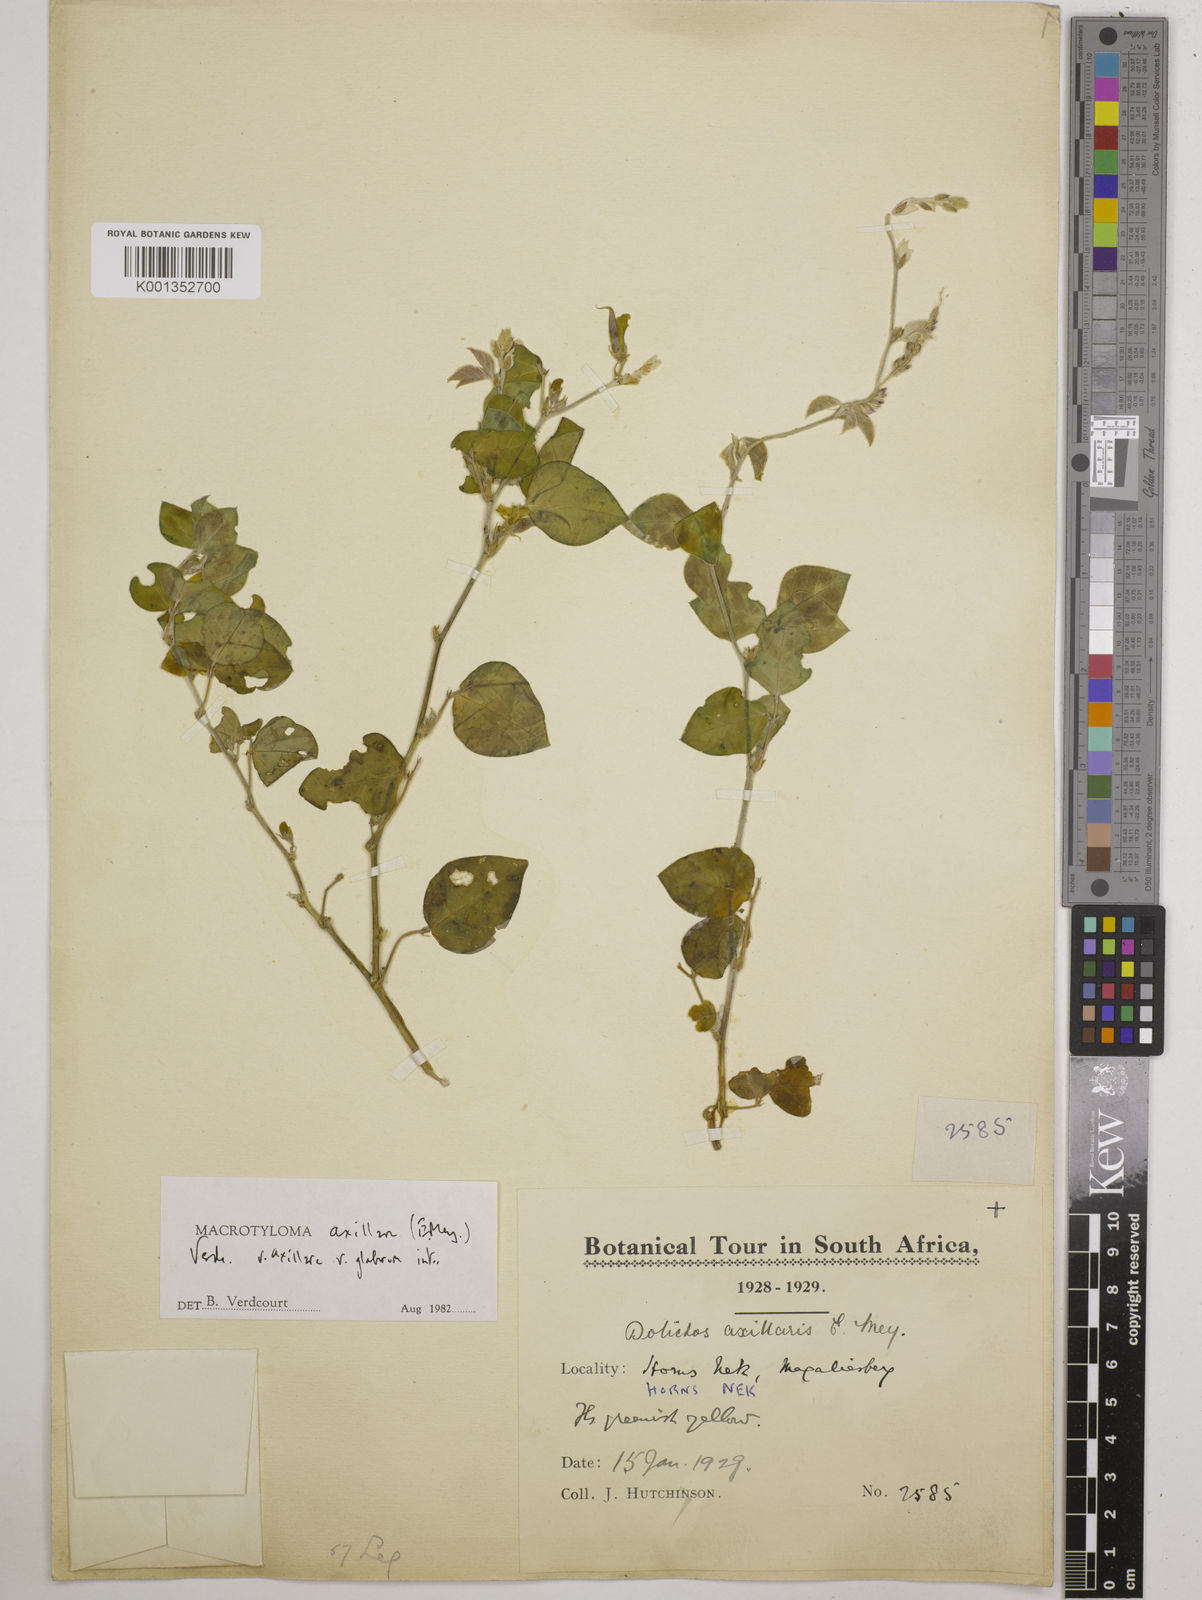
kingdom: Plantae
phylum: Tracheophyta
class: Magnoliopsida
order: Fabales
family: Fabaceae
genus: Macrotyloma
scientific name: Macrotyloma
